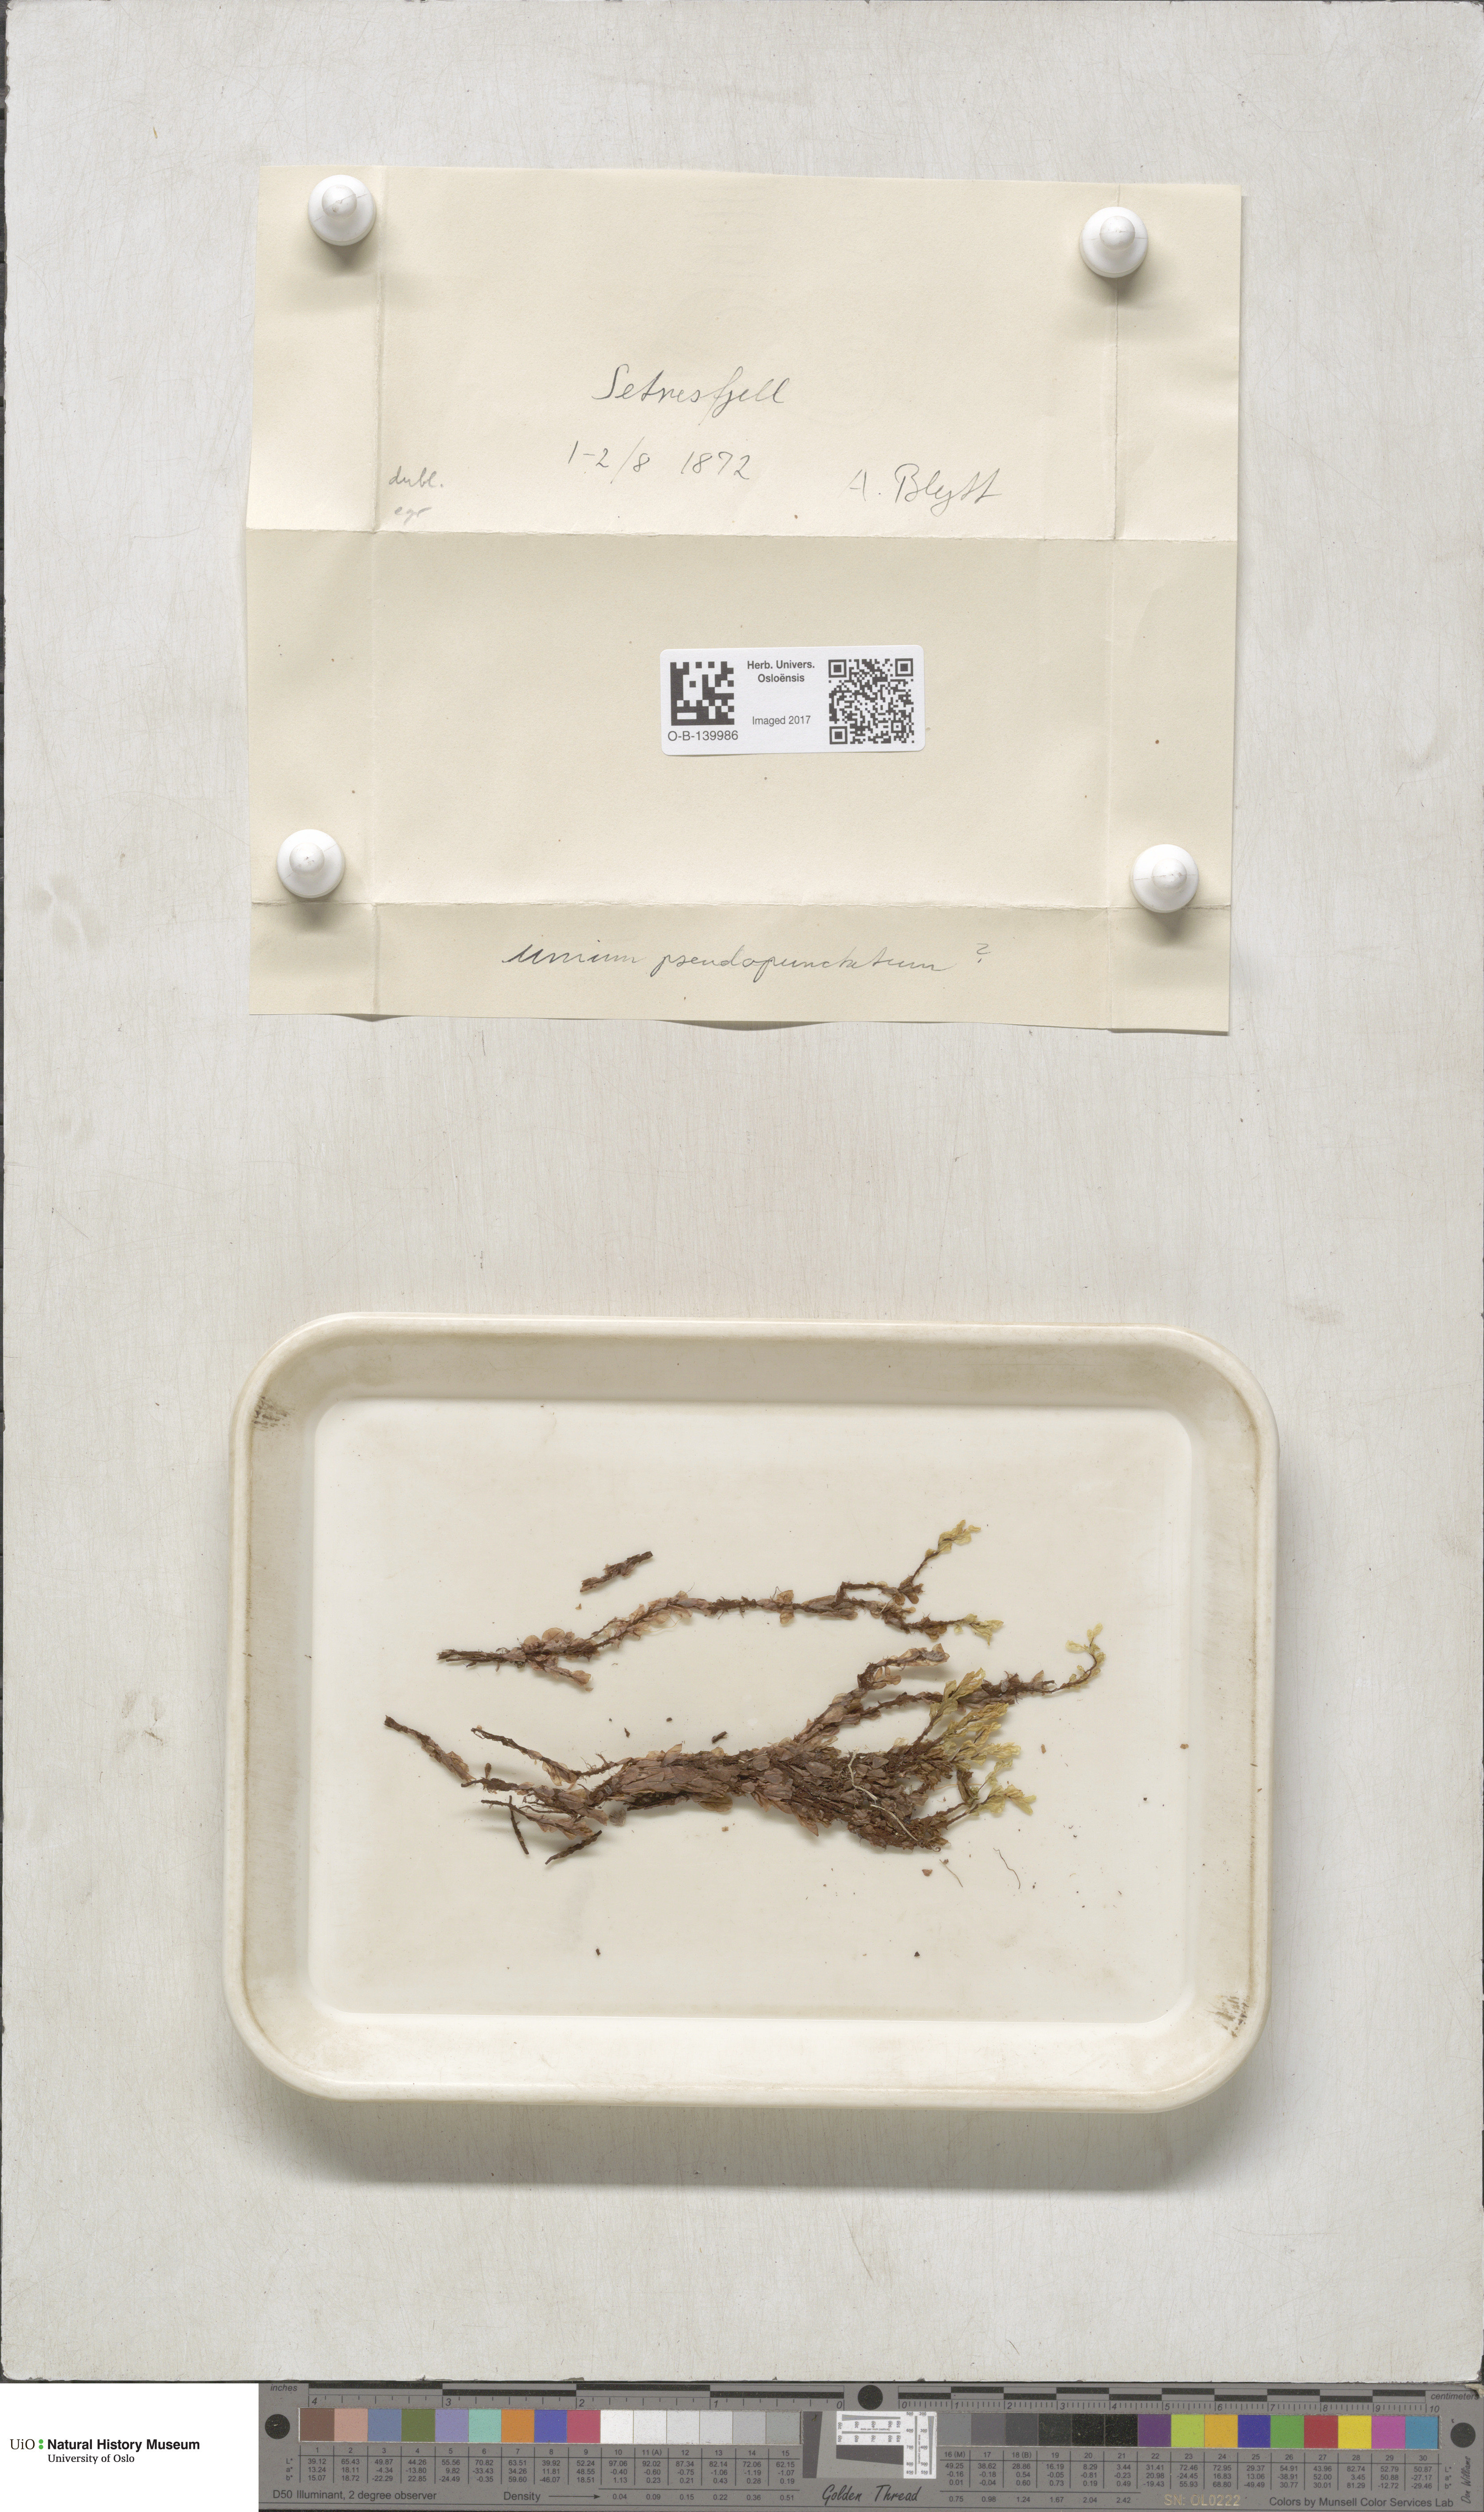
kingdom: Plantae
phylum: Bryophyta
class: Bryopsida
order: Bryales
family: Mniaceae
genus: Rhizomnium
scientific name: Rhizomnium pseudopunctatum
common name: Felted leafy moss
